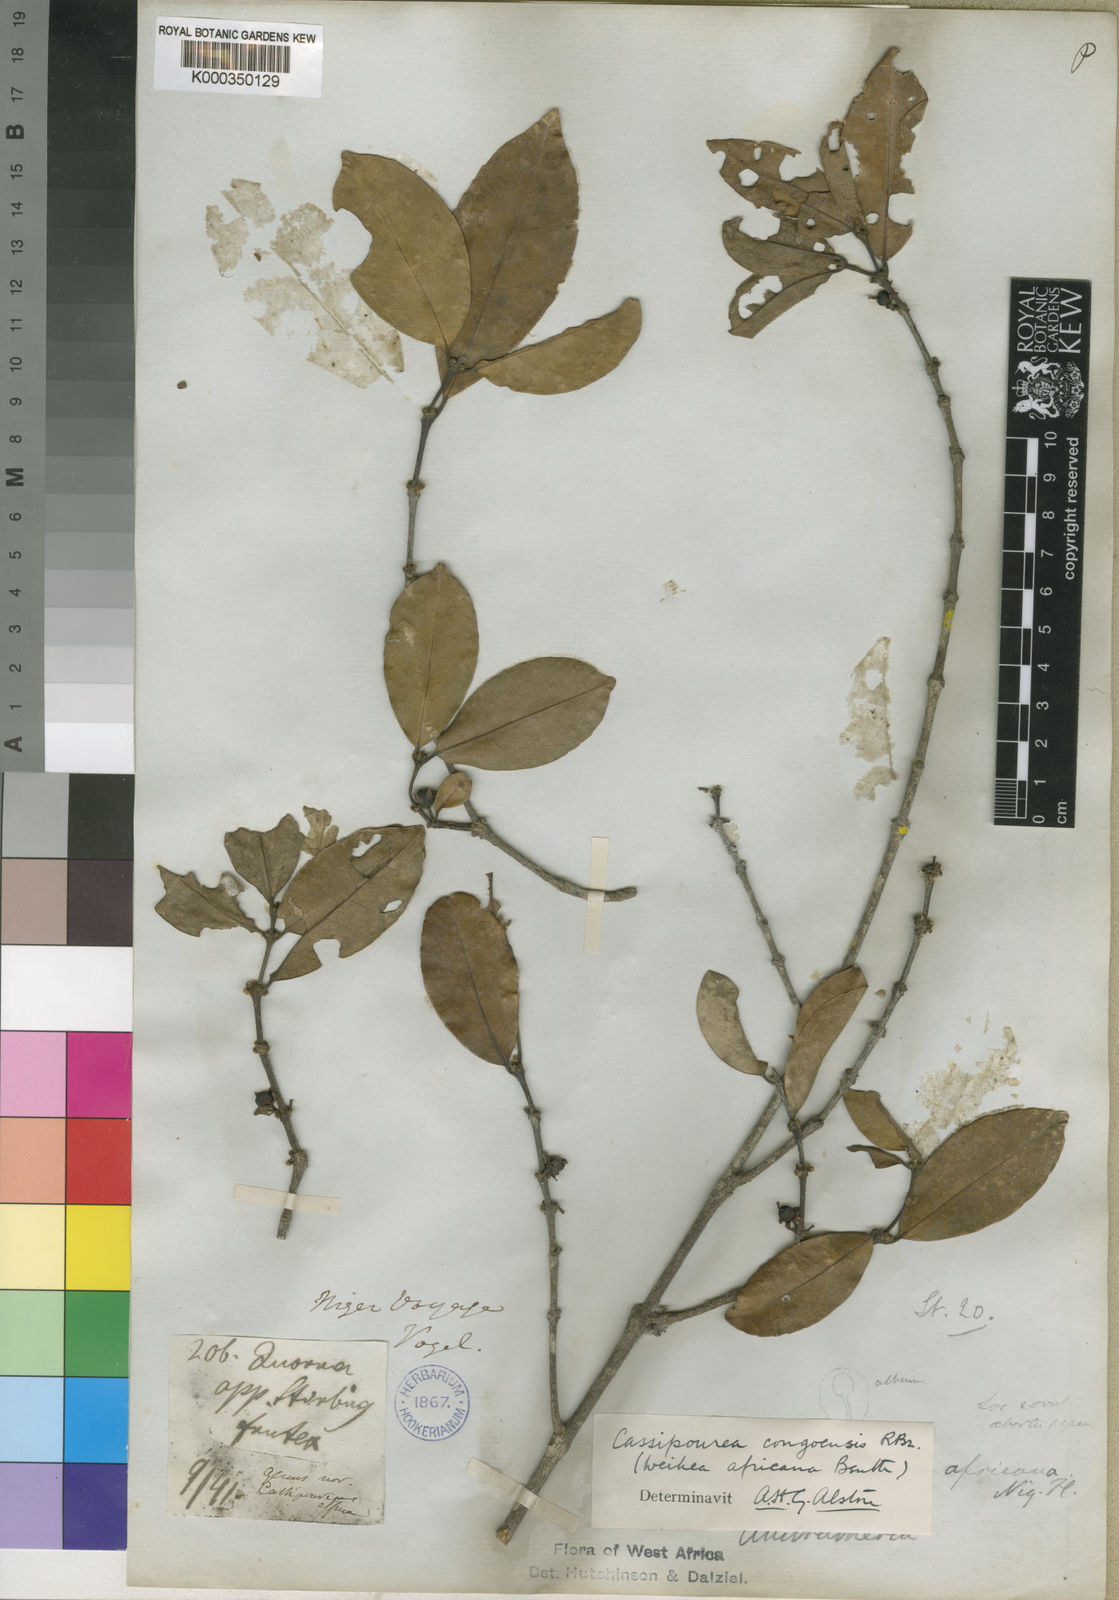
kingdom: Plantae
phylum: Tracheophyta
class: Magnoliopsida
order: Malpighiales
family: Rhizophoraceae
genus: Cassipourea
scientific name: Cassipourea
